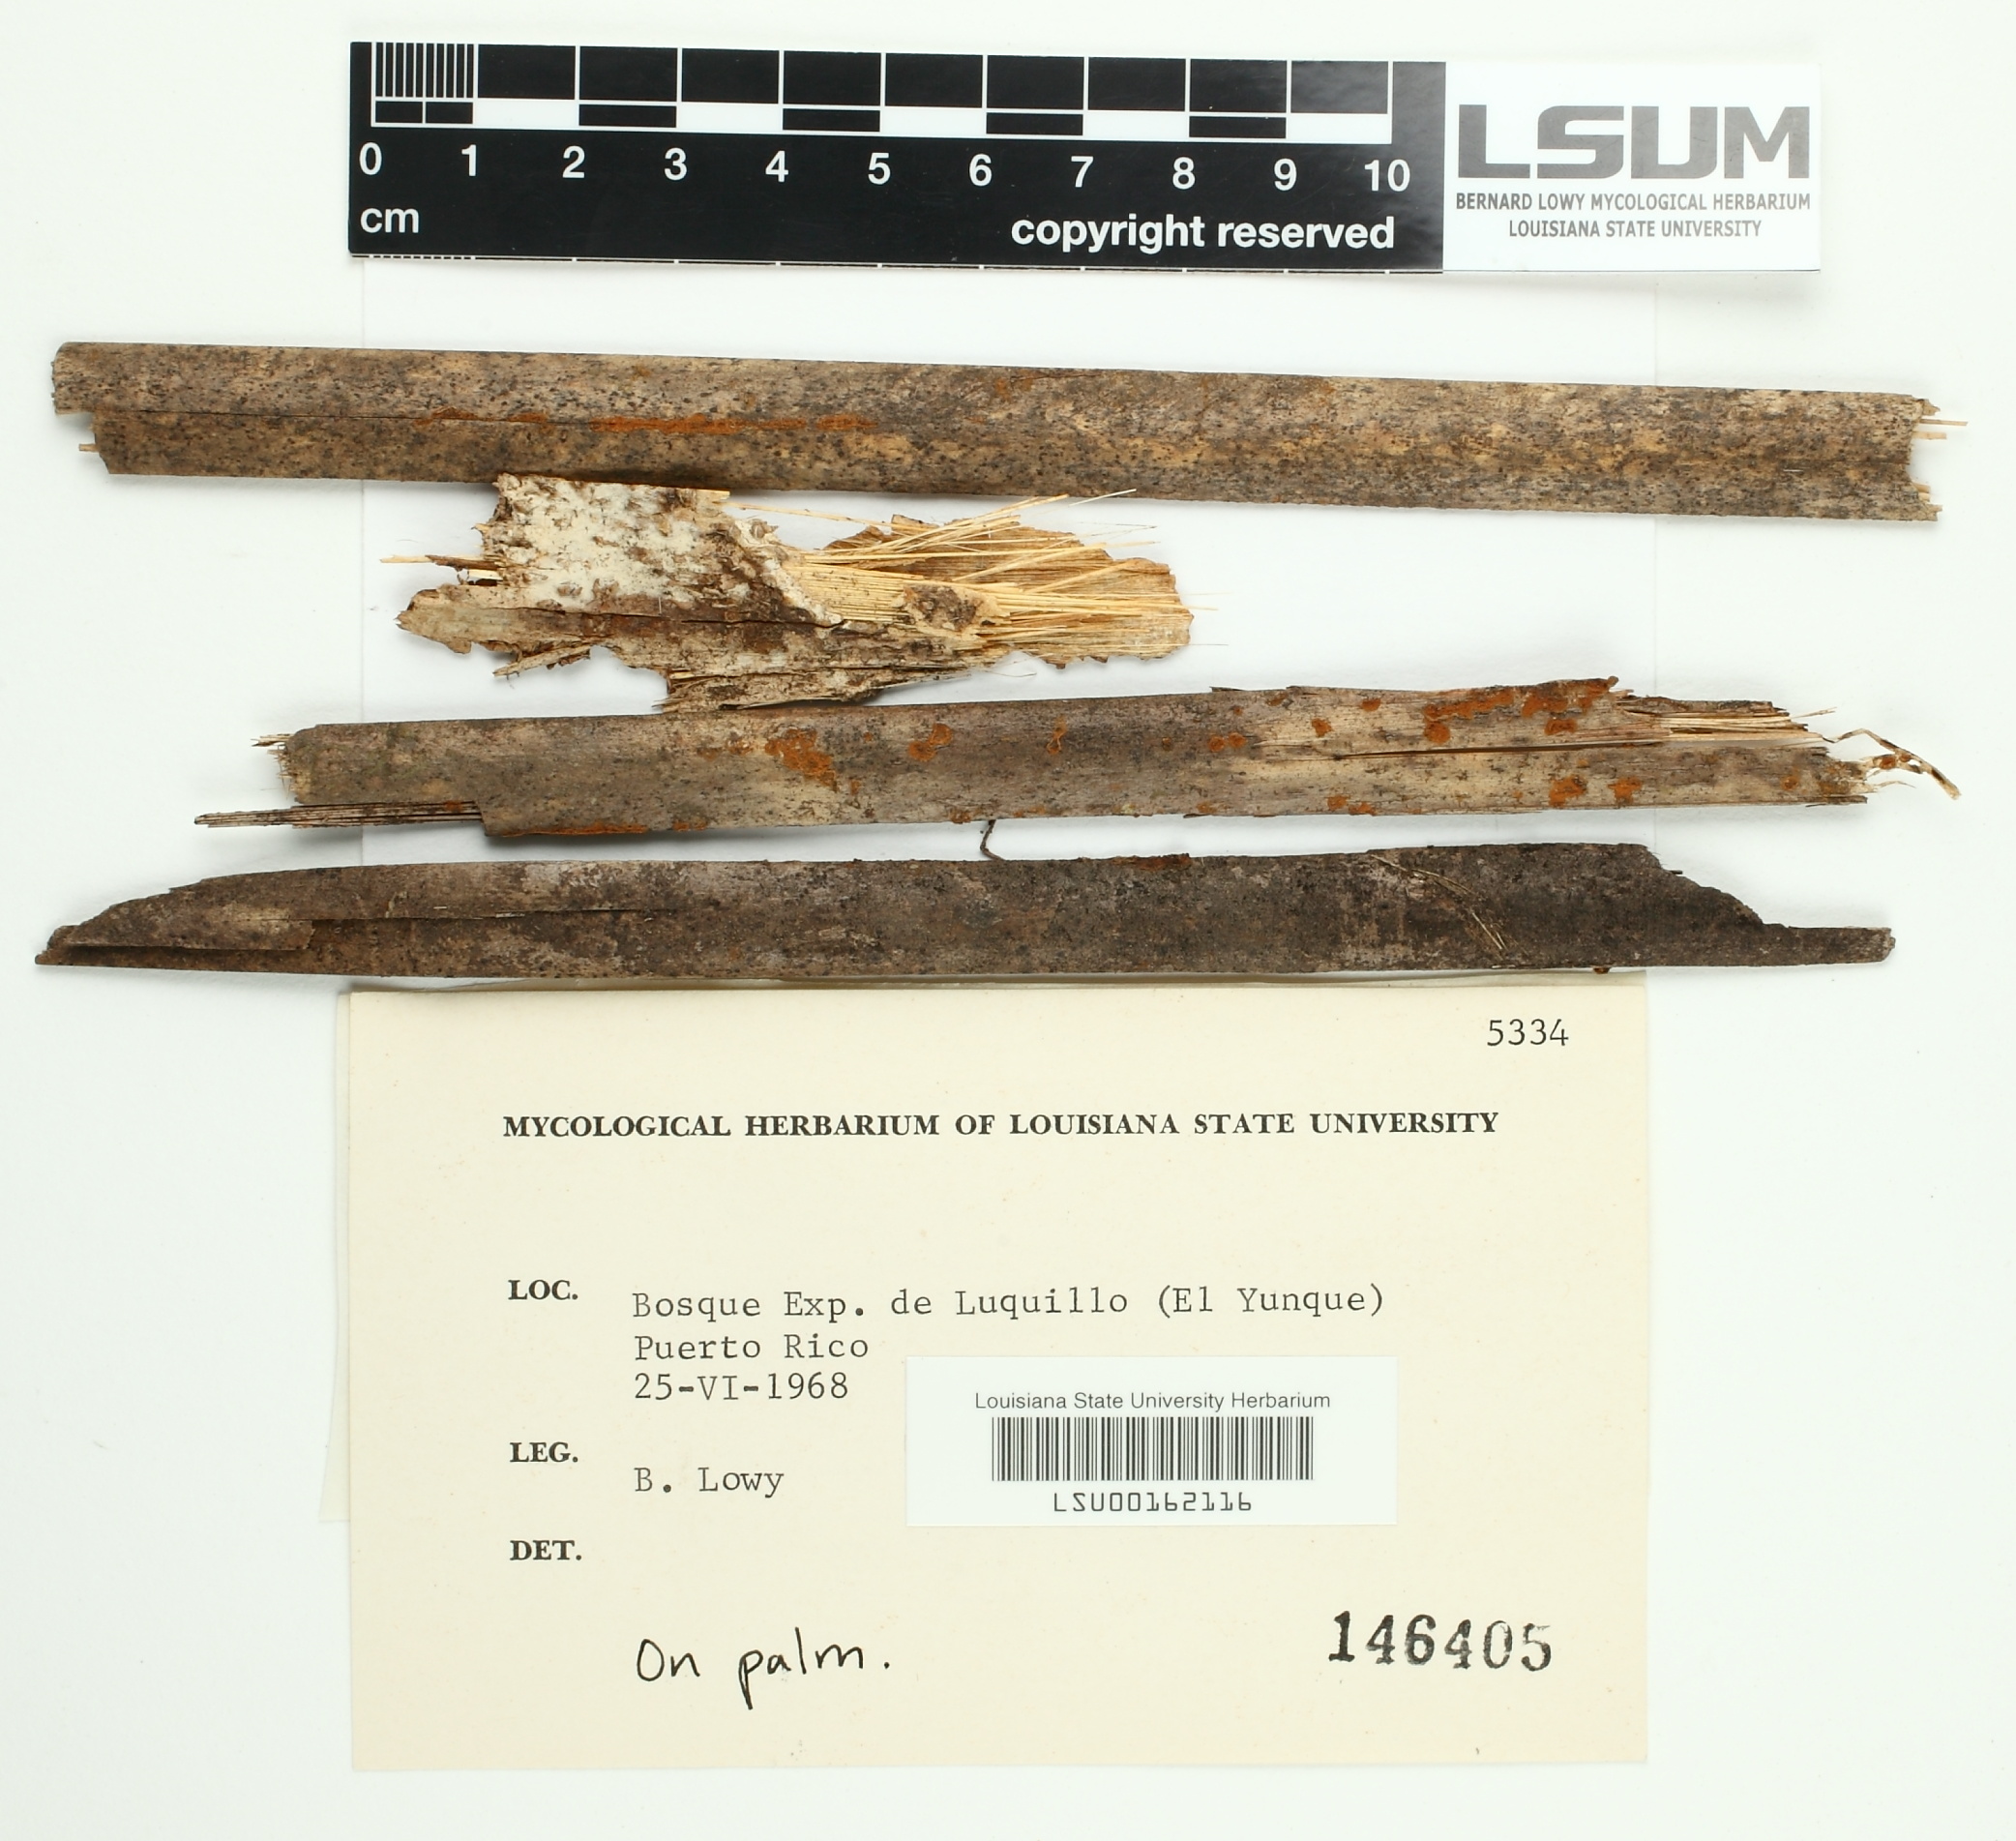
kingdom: Fungi
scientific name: Fungi
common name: Fungi
